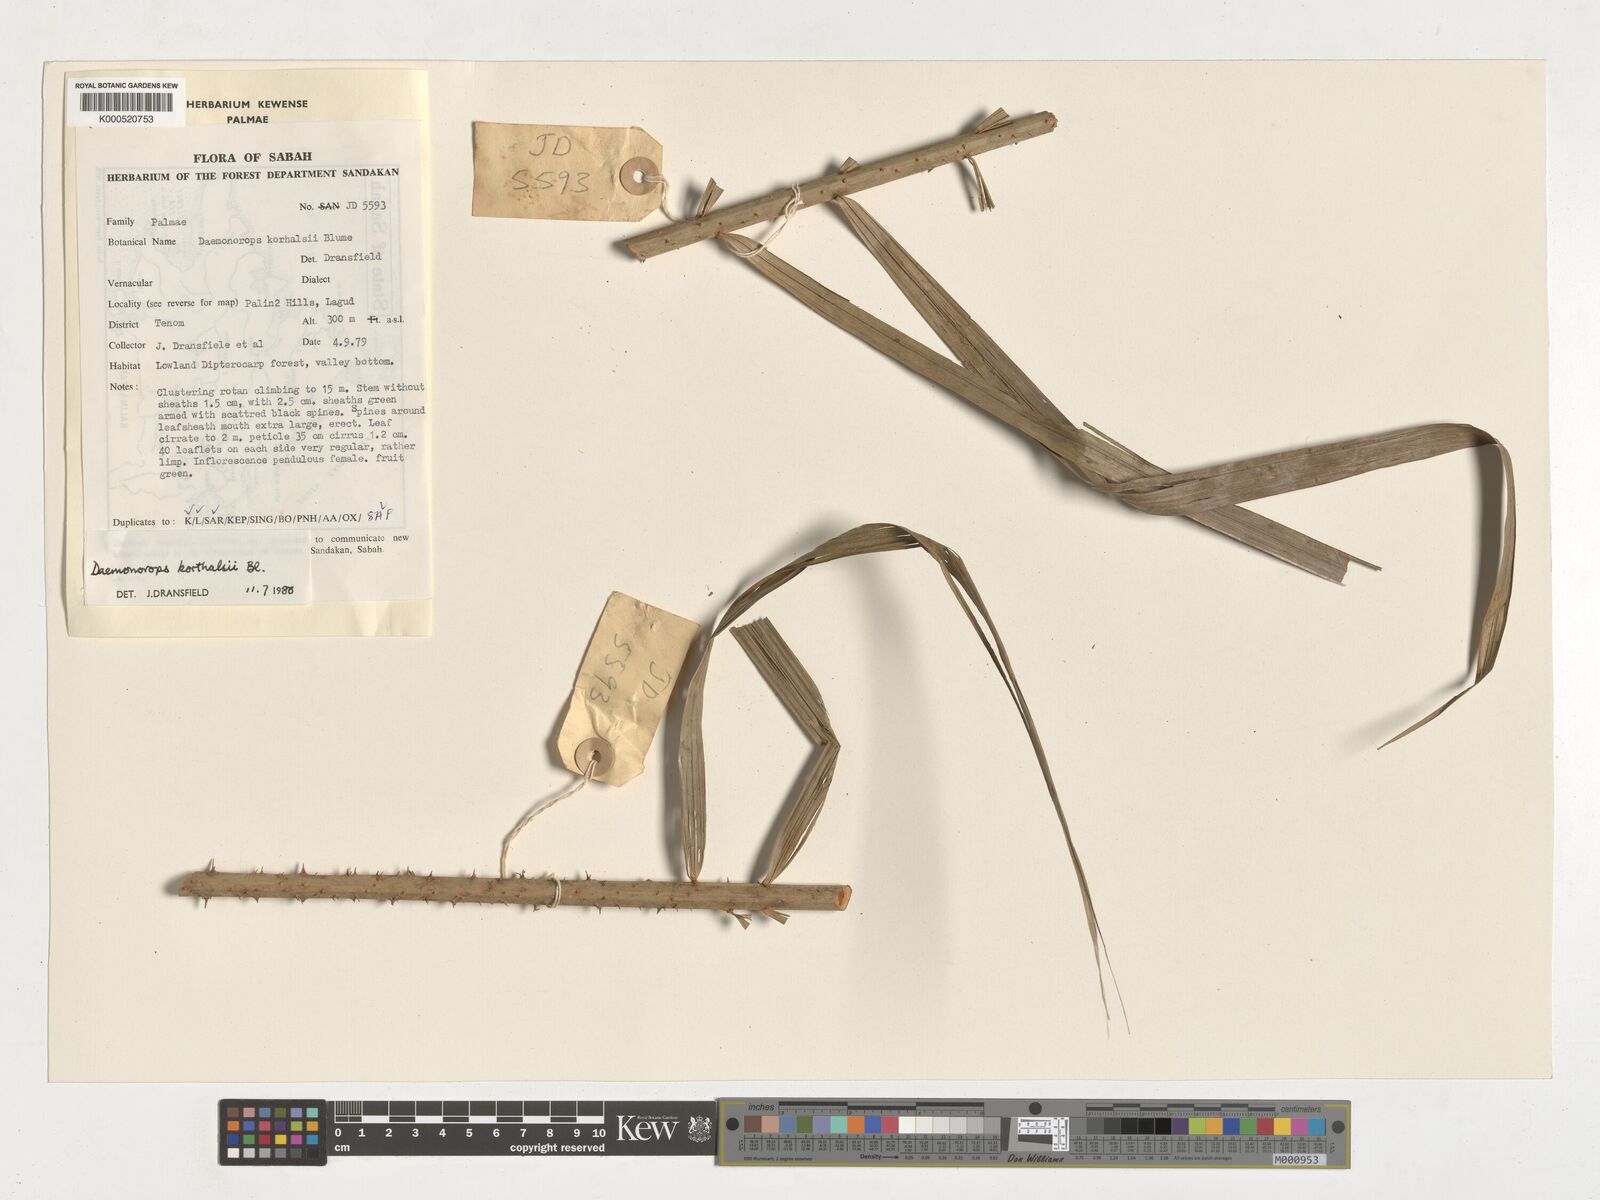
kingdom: Plantae
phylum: Tracheophyta
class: Liliopsida
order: Arecales
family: Arecaceae
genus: Calamus
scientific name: Calamus hirsutus
